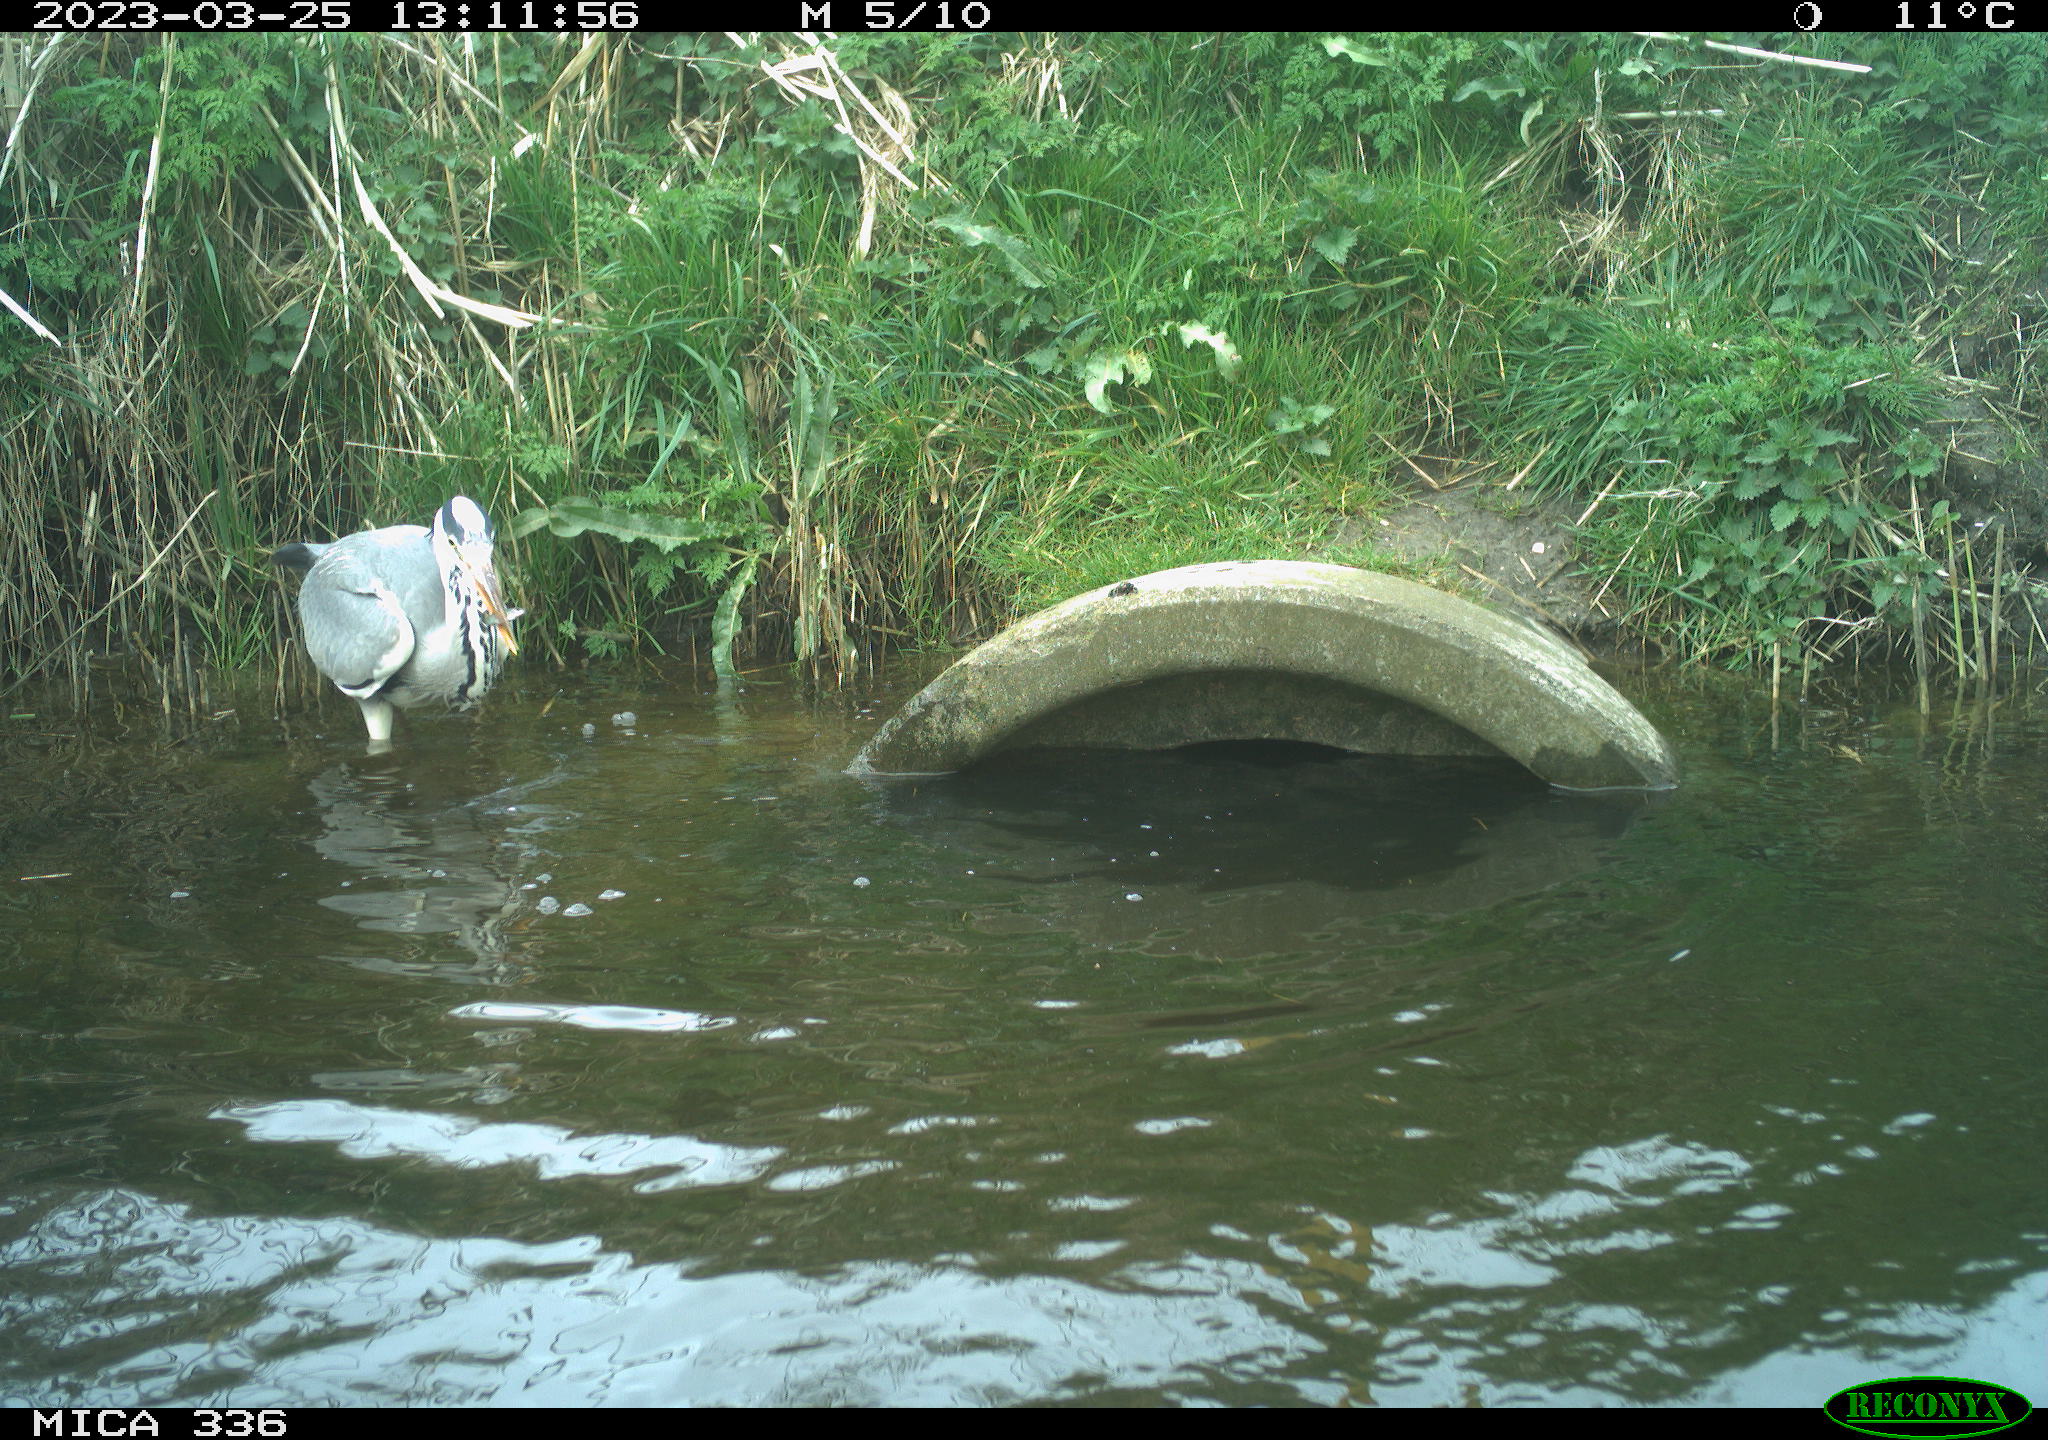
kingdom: Animalia
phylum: Chordata
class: Aves
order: Pelecaniformes
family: Ardeidae
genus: Ardea
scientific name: Ardea
